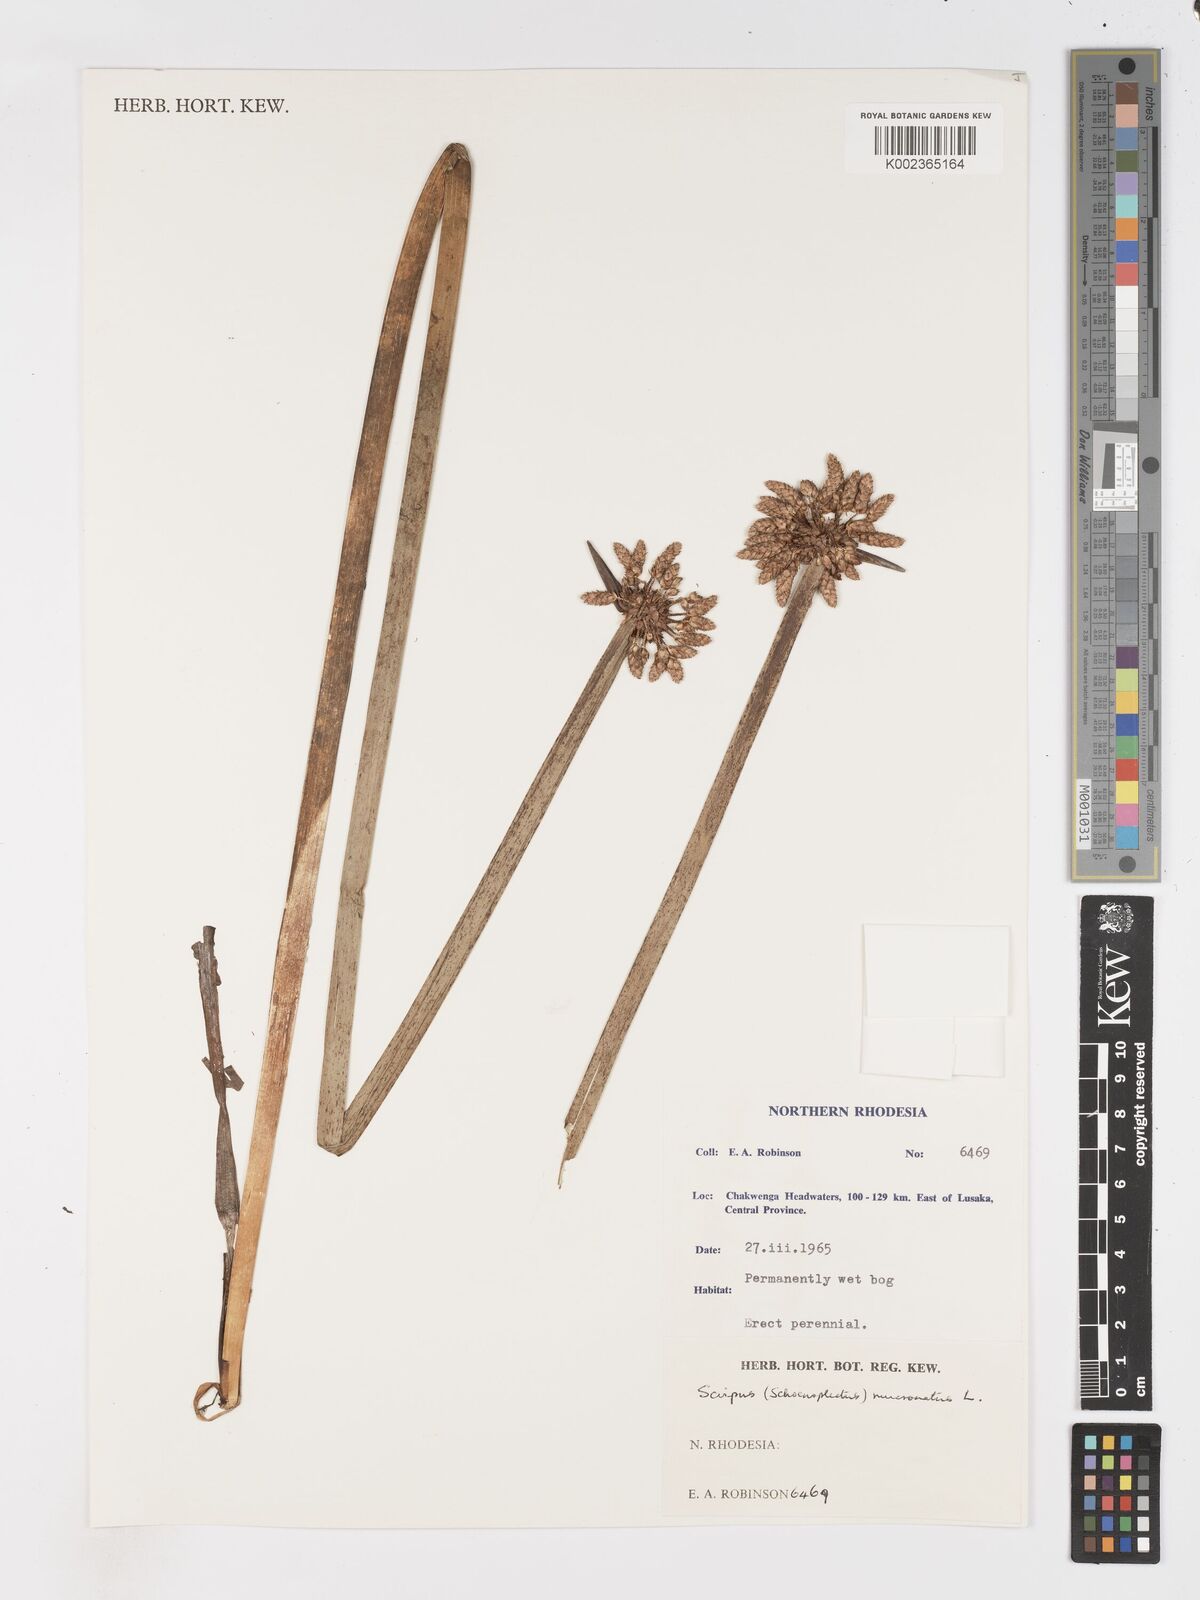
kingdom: Plantae
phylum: Tracheophyta
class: Liliopsida
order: Poales
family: Cyperaceae
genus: Schoenoplectiella
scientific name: Schoenoplectiella mucronata
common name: Bog bulrush
